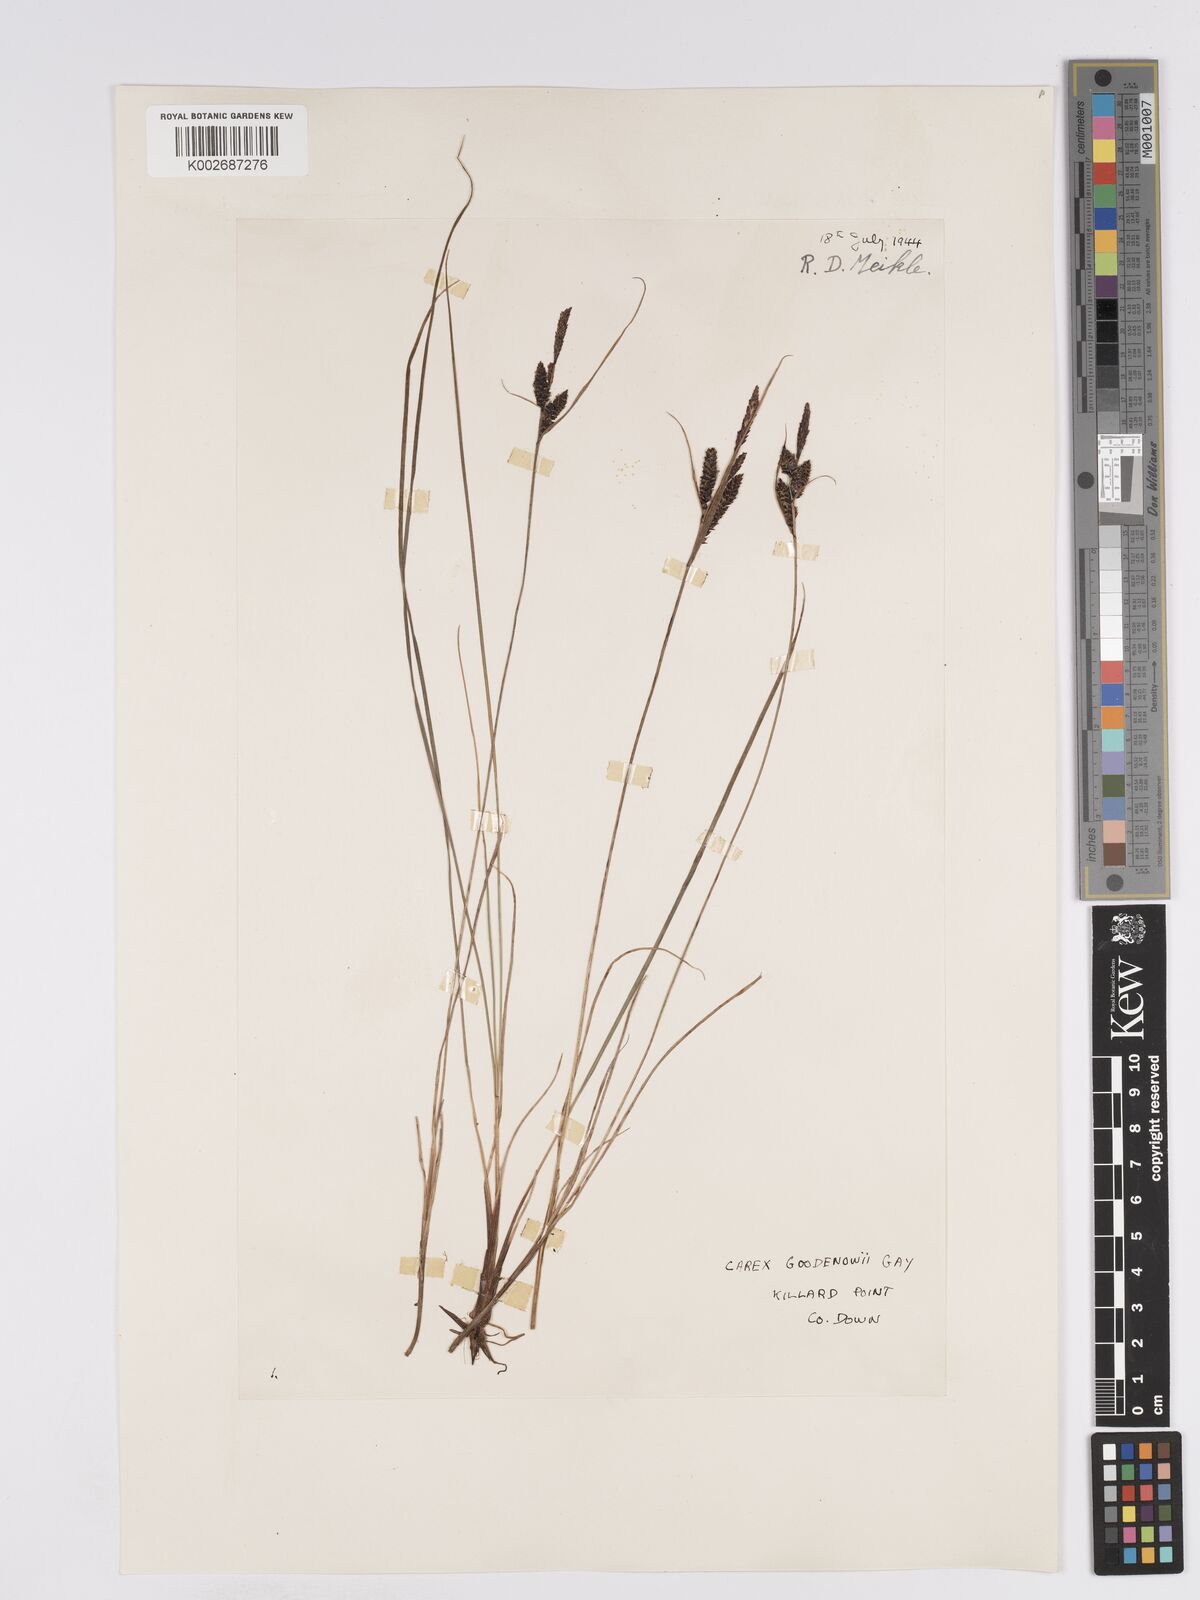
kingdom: Plantae
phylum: Tracheophyta
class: Liliopsida
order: Poales
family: Cyperaceae
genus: Carex
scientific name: Carex nigra
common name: Common sedge
